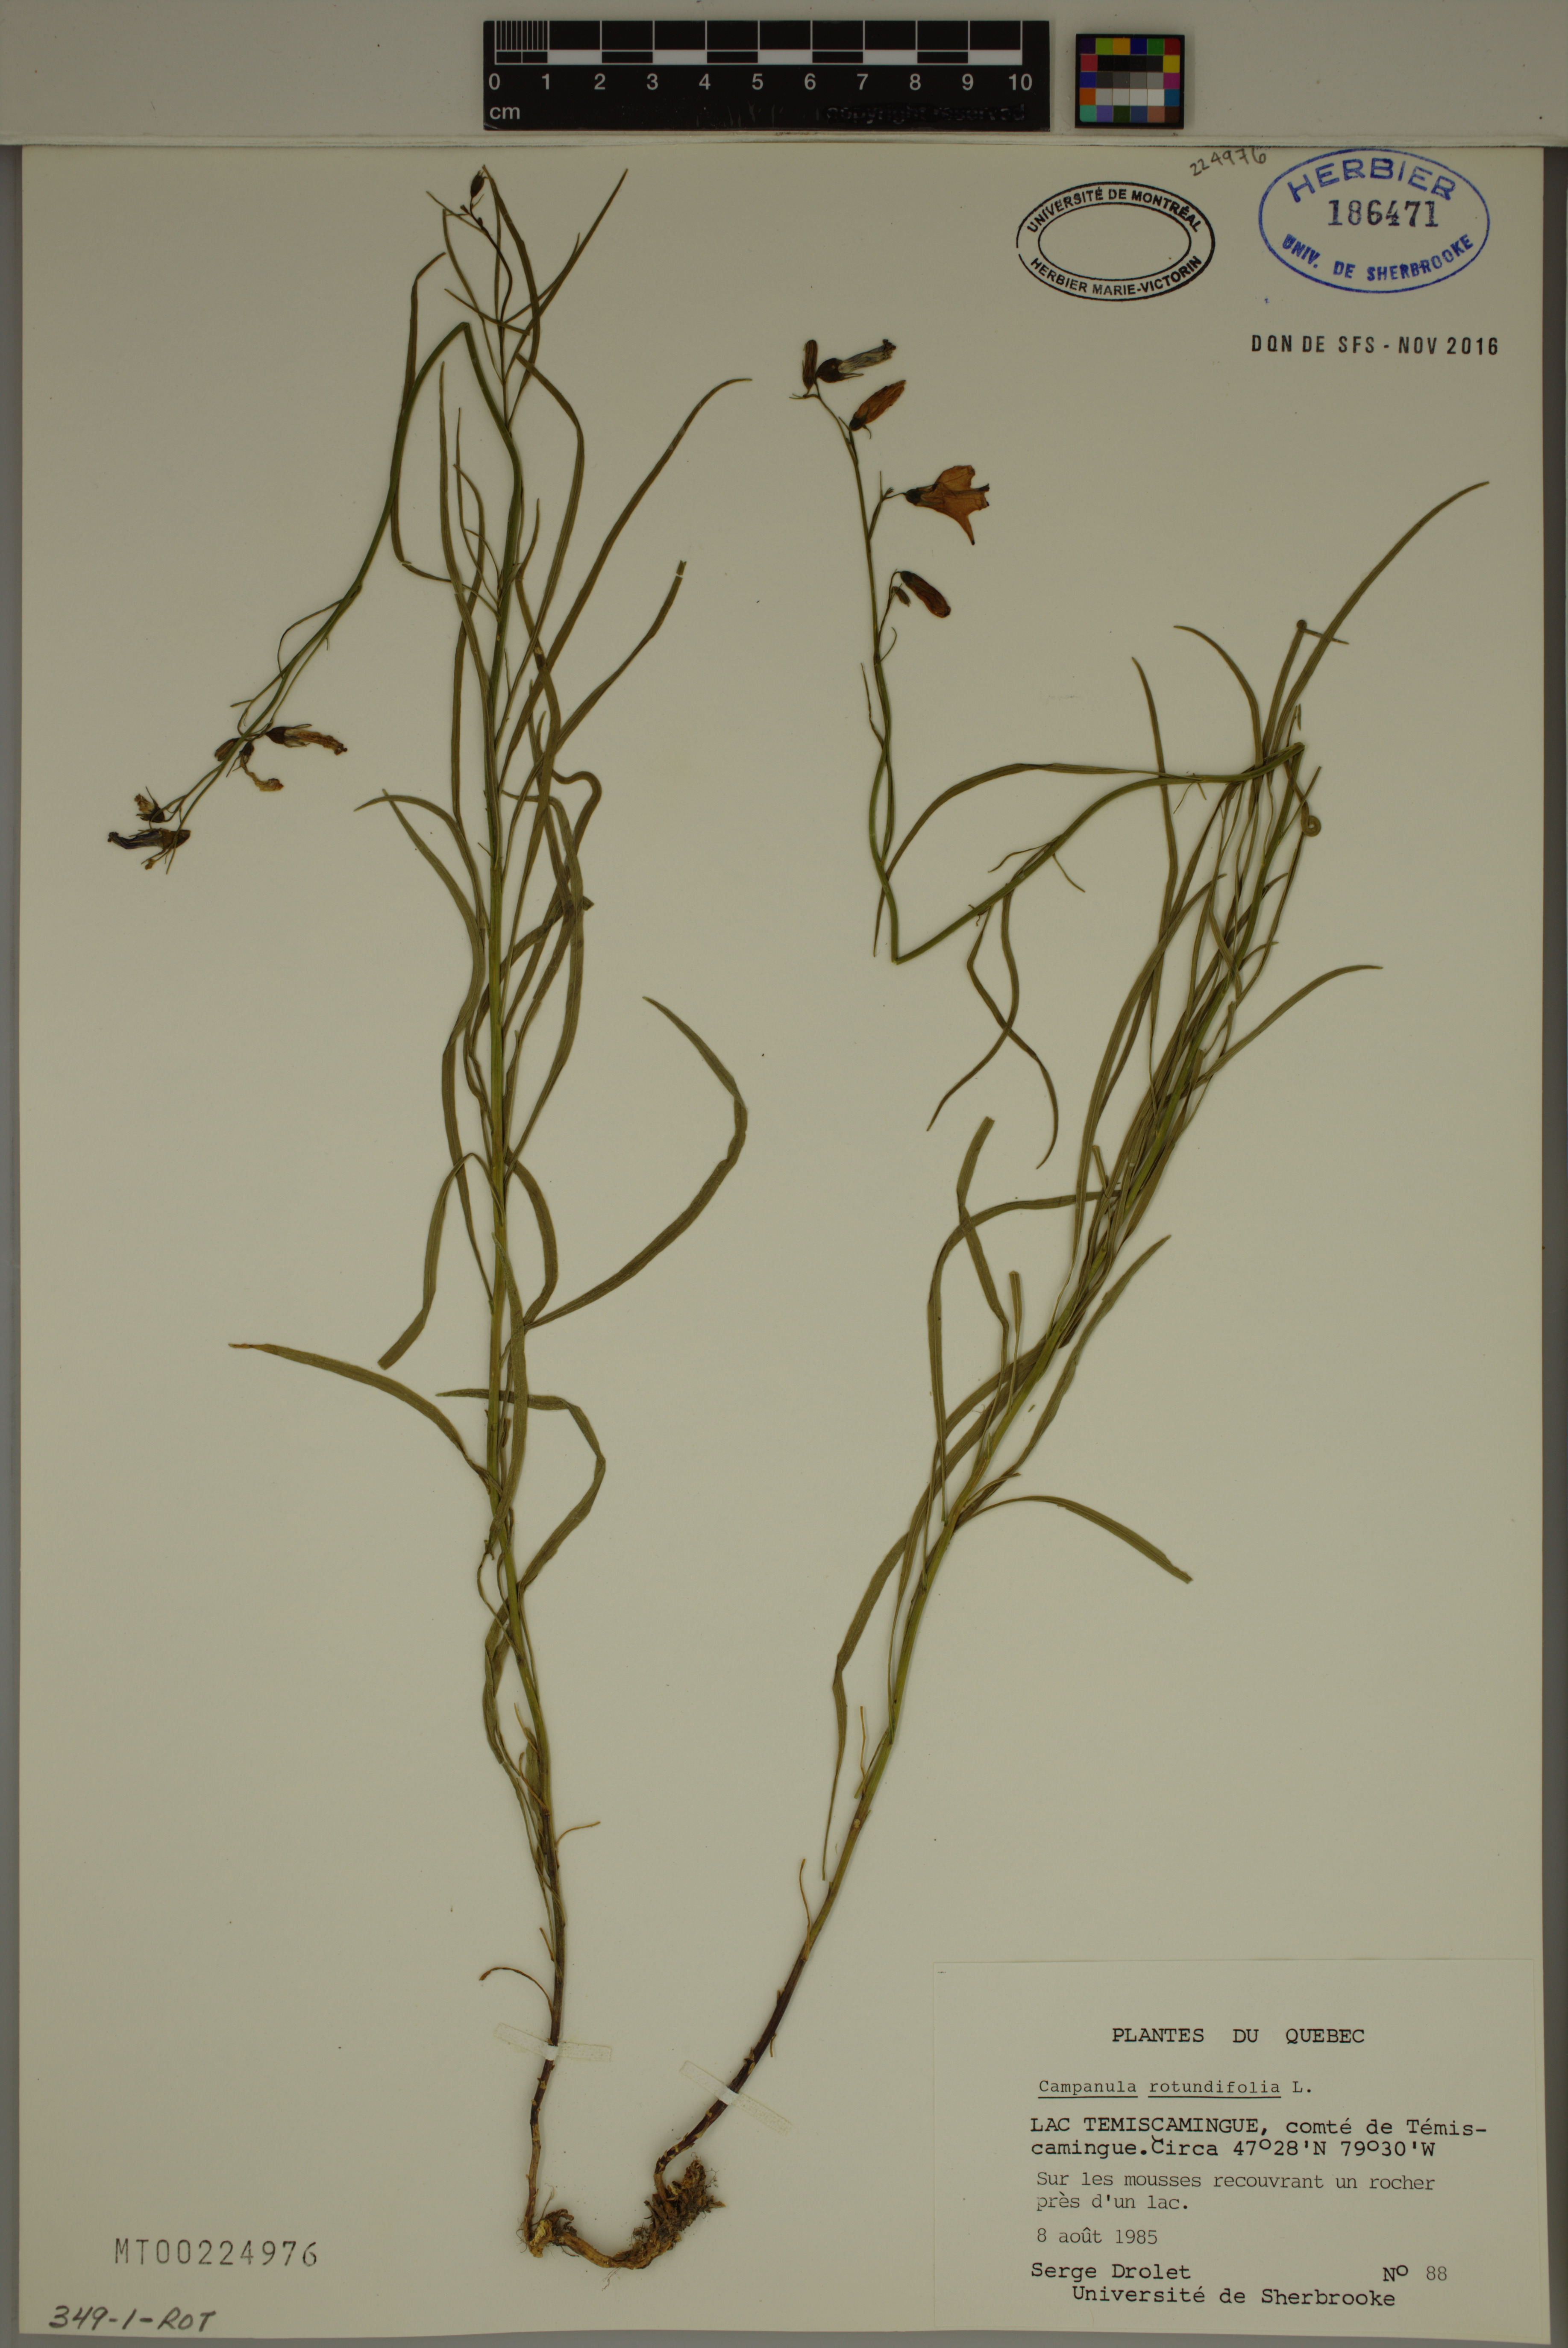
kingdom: Plantae
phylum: Tracheophyta
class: Magnoliopsida
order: Asterales
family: Campanulaceae
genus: Campanula
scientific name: Campanula rotundifolia
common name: Harebell
